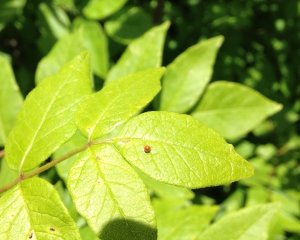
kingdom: Animalia
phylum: Arthropoda
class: Insecta
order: Lepidoptera
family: Papilionidae
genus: Papilio
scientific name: Papilio cresphontes
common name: Eastern Giant Swallowtail
